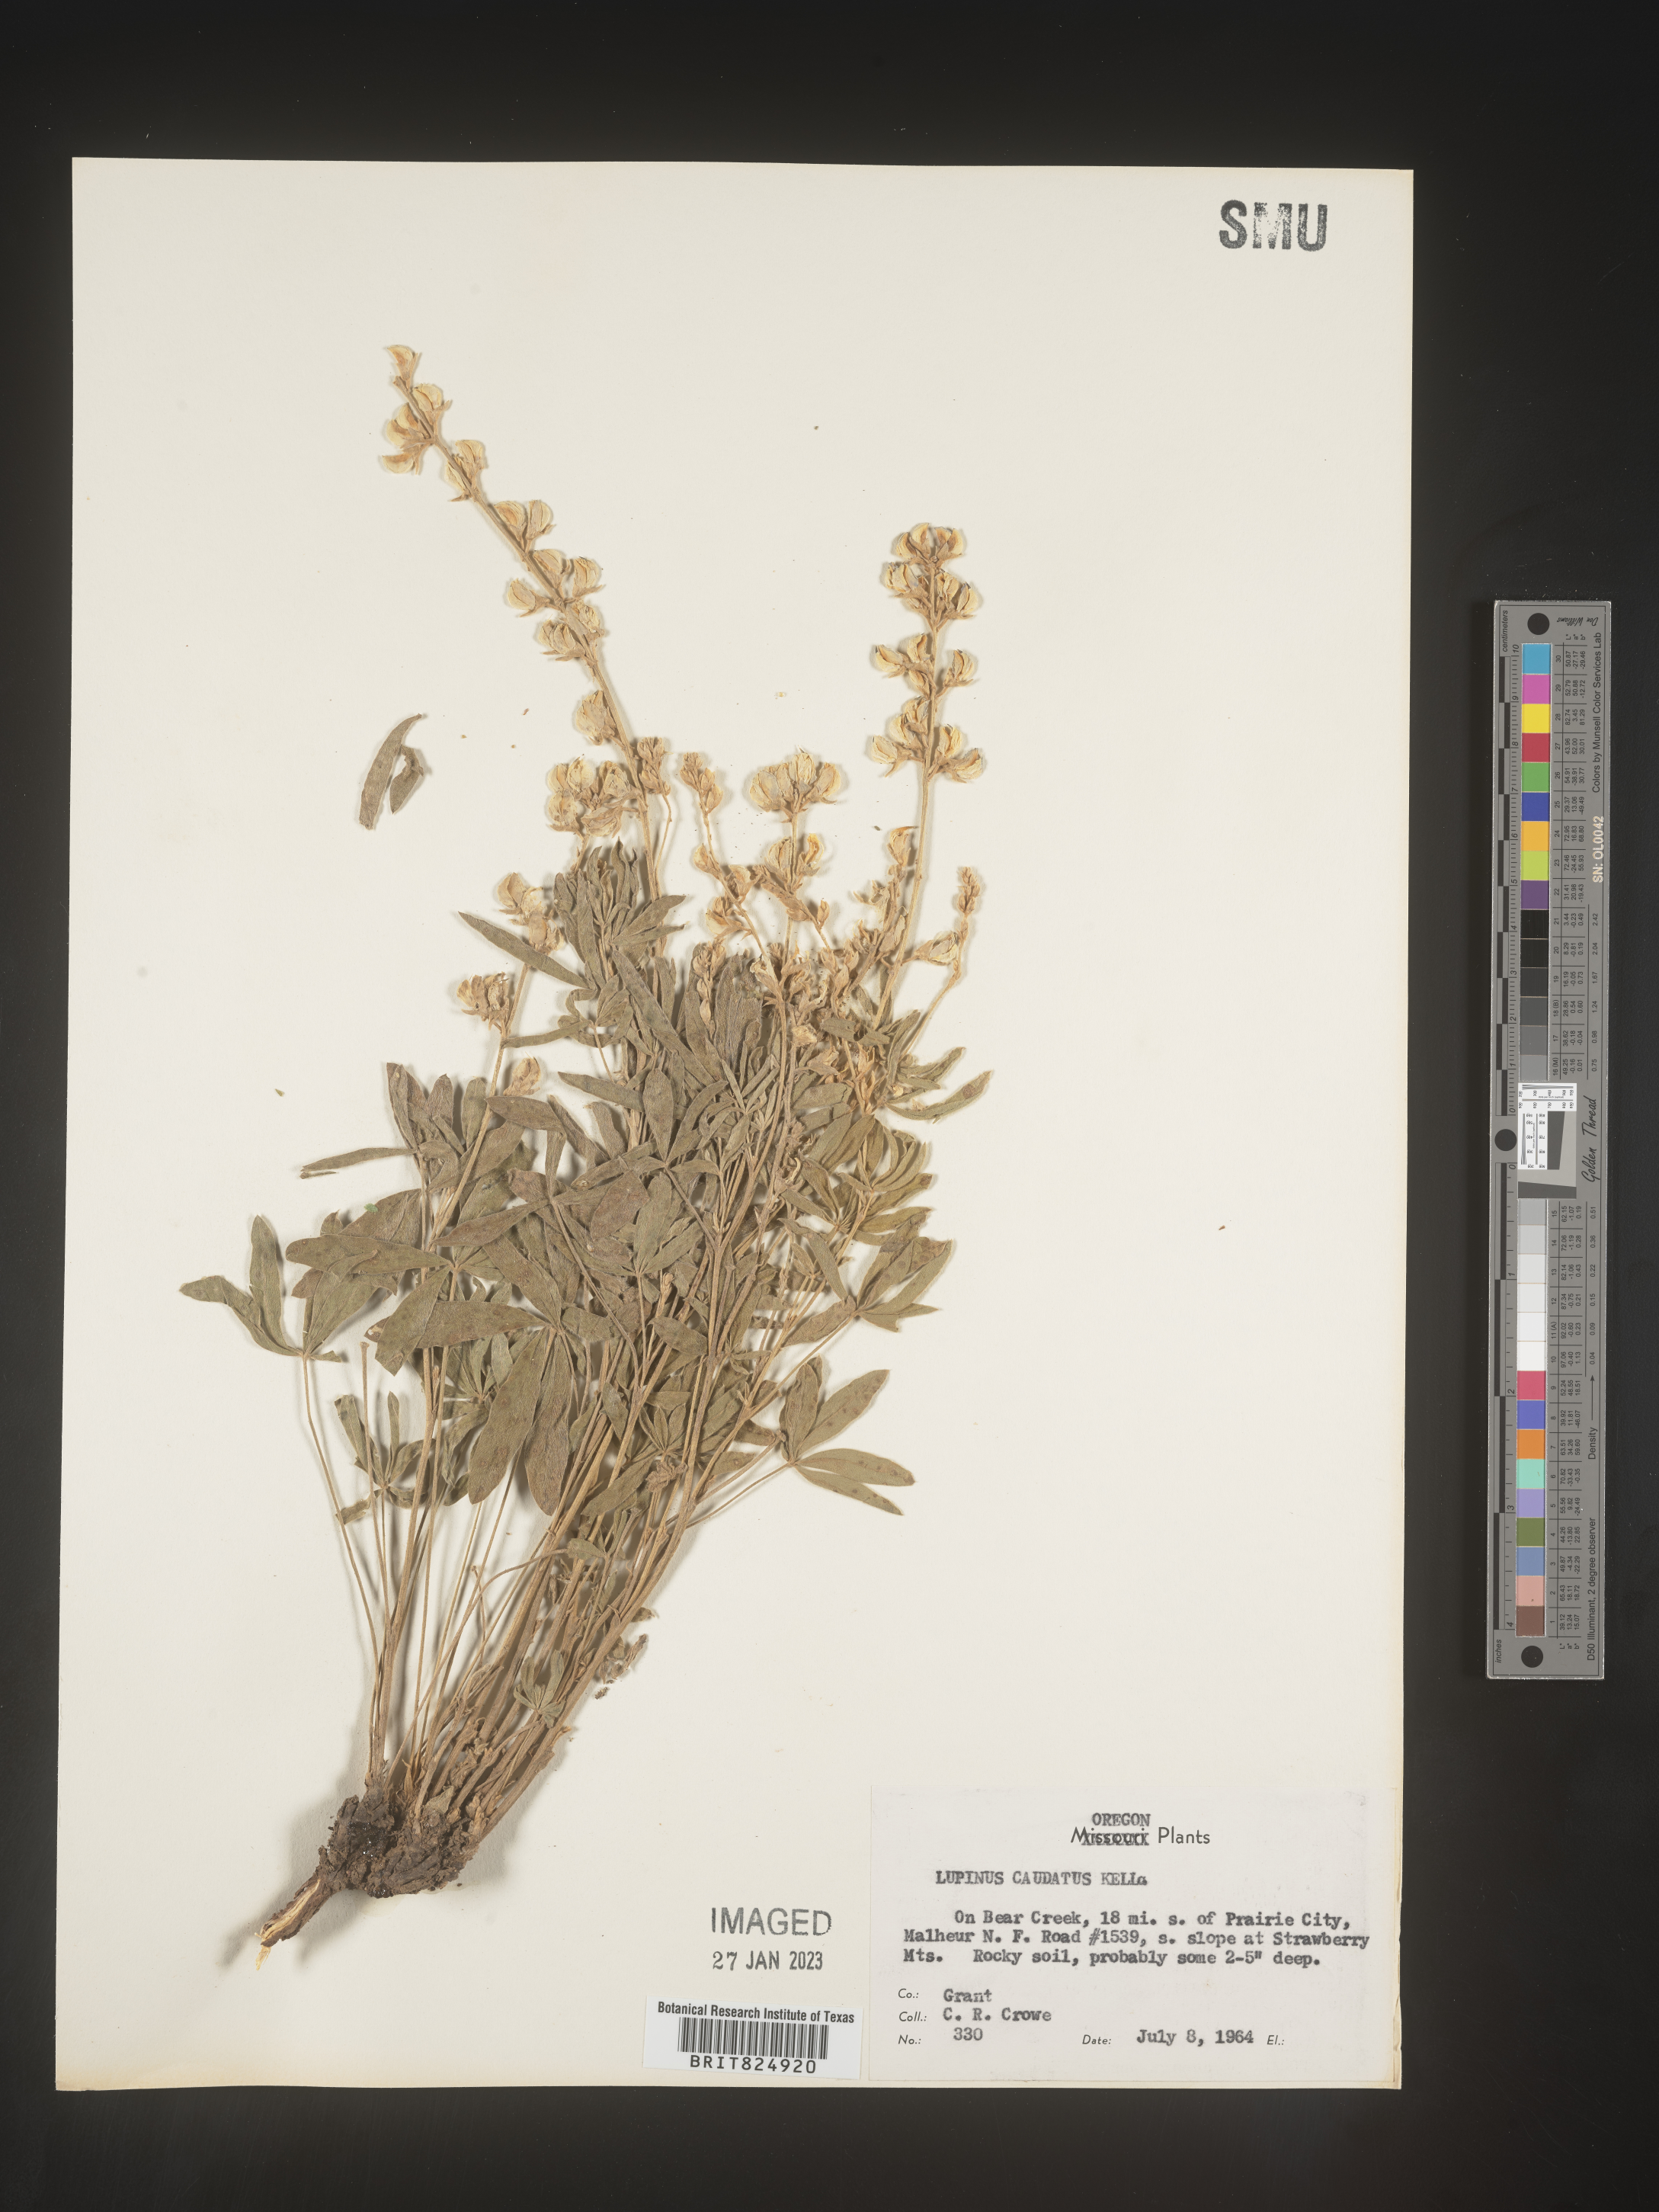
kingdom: Plantae
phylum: Tracheophyta
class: Magnoliopsida
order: Fabales
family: Fabaceae
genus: Lupinus
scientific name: Lupinus caudatus
